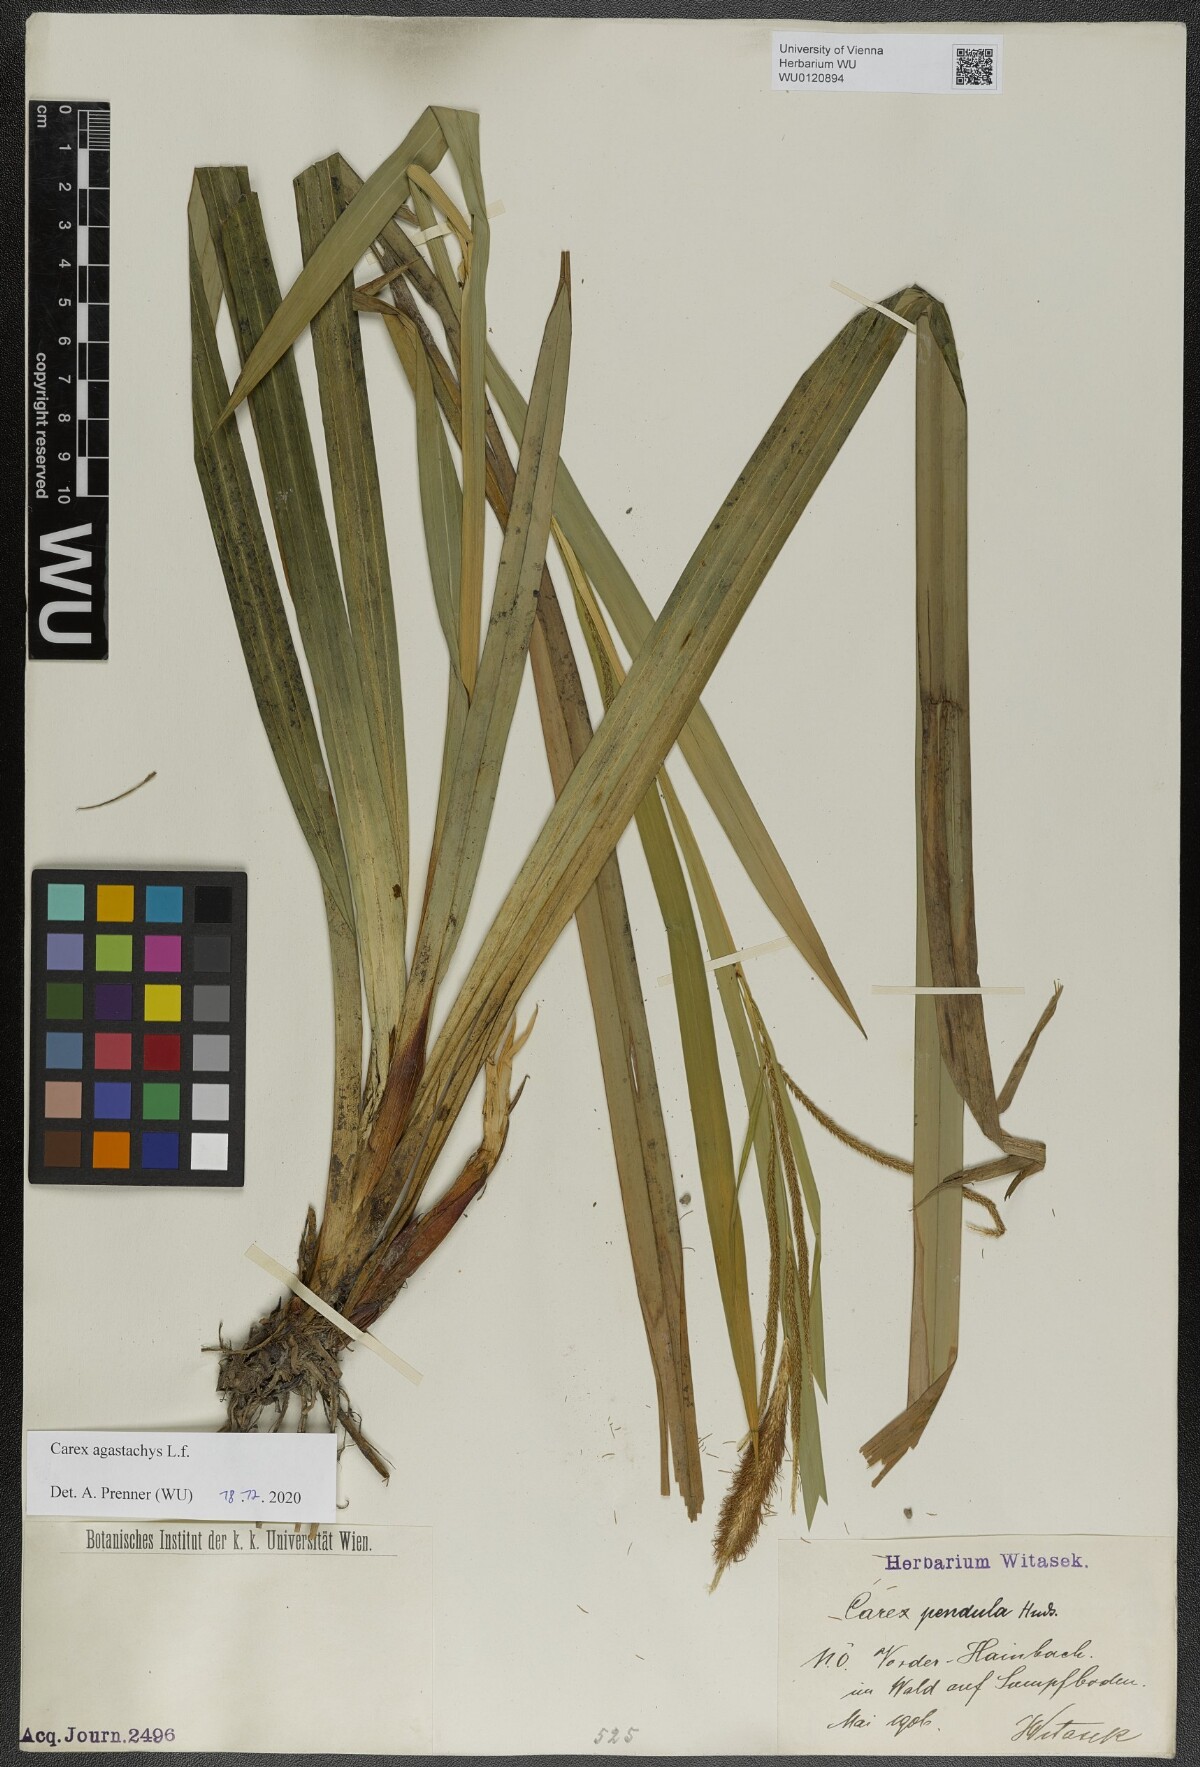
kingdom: Plantae
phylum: Tracheophyta
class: Liliopsida
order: Poales
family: Cyperaceae
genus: Carex
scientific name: Carex agastachys
